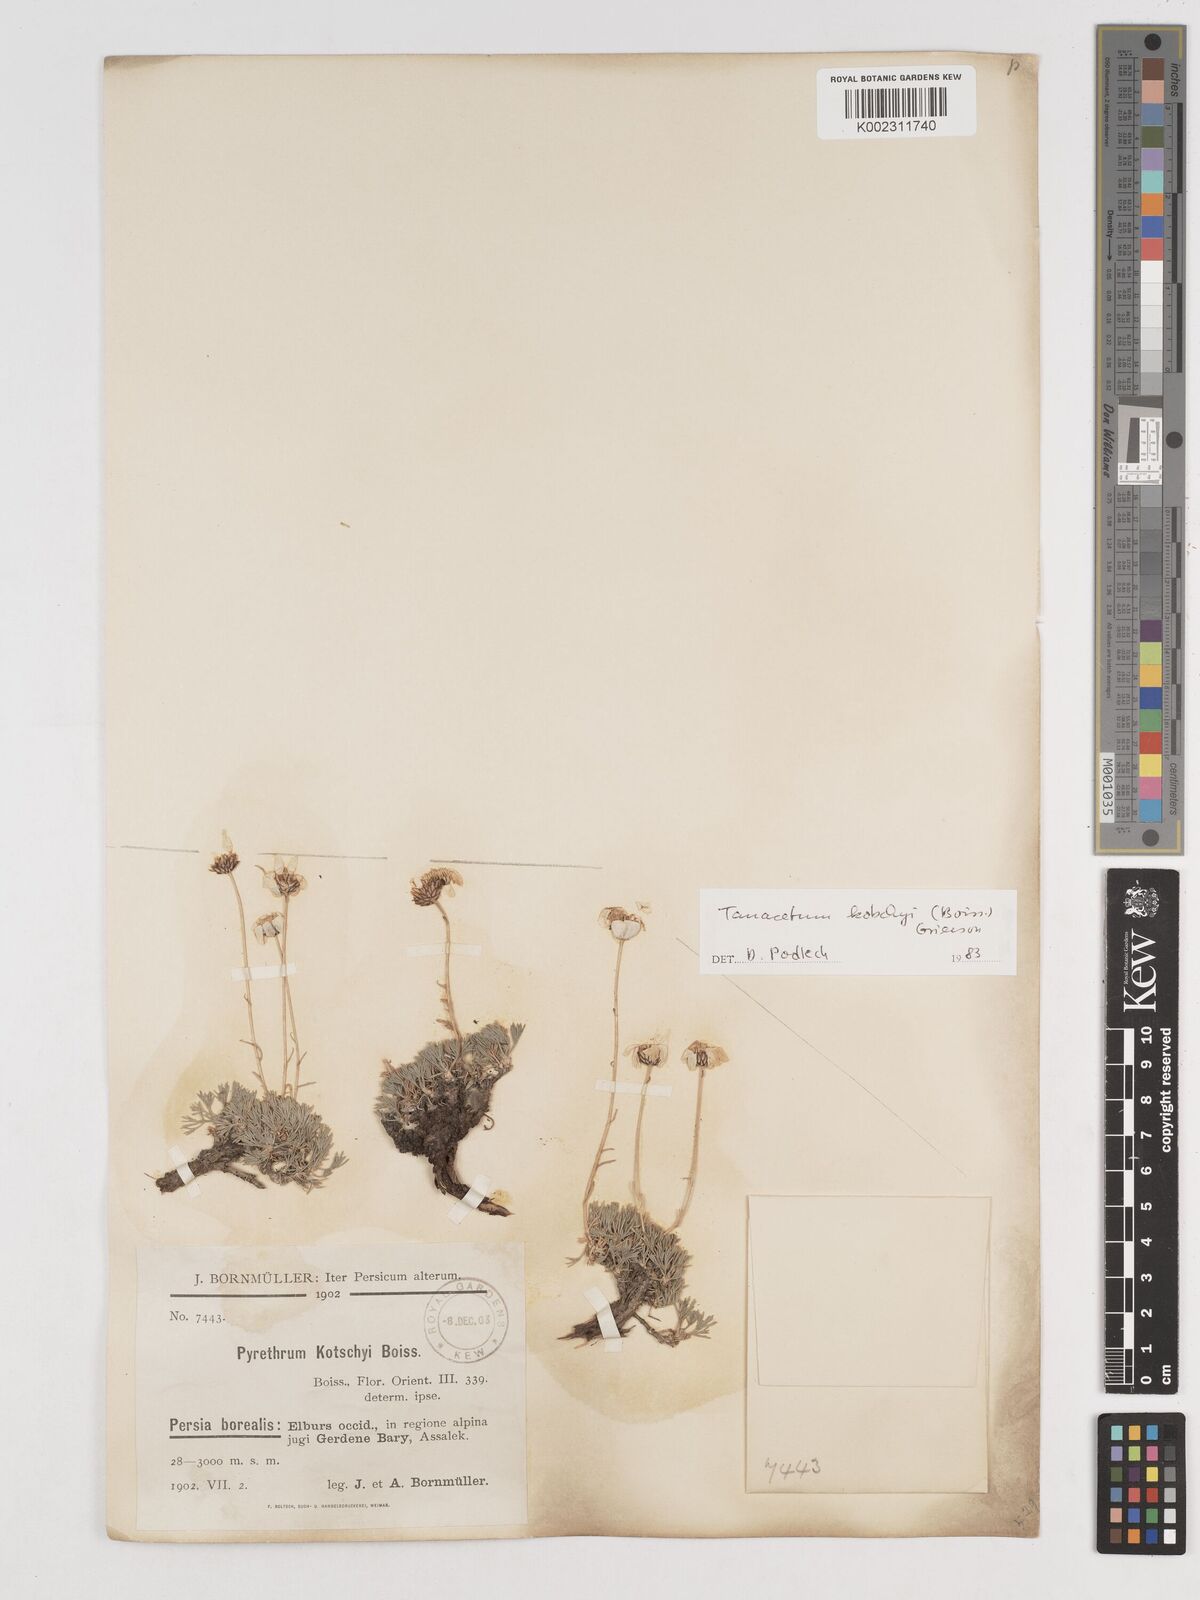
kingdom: Plantae
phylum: Tracheophyta
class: Magnoliopsida
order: Asterales
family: Asteraceae
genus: Tanacetum
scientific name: Tanacetum polycephalum
